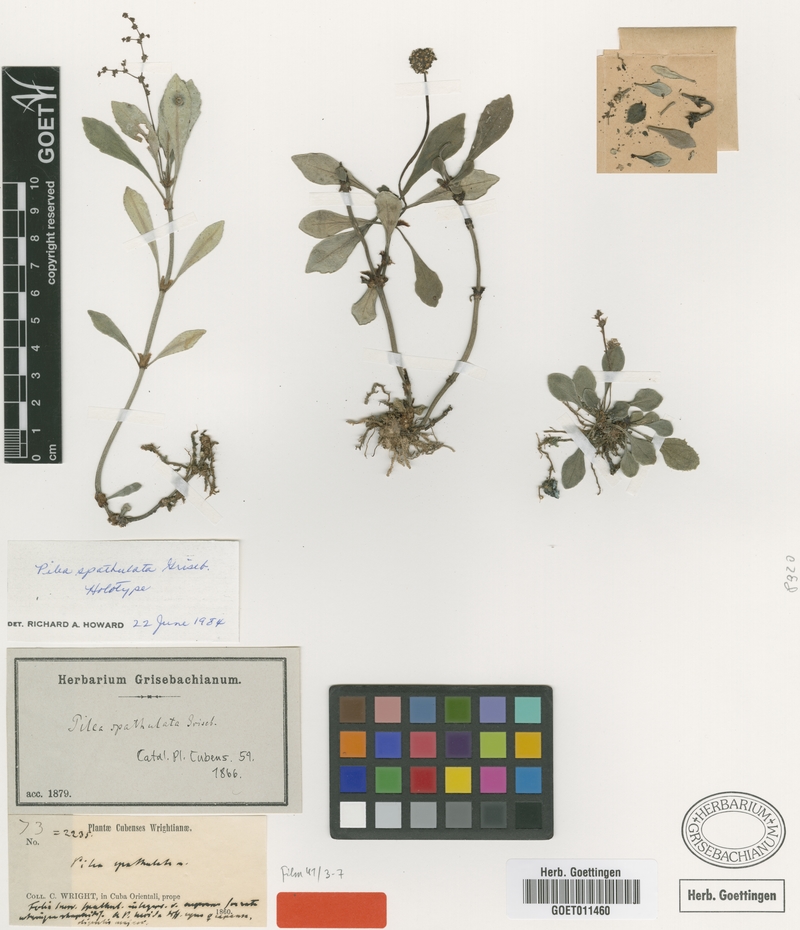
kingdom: Plantae
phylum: Tracheophyta
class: Magnoliopsida
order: Rosales
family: Urticaceae
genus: Pilea
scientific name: Pilea spathulata
